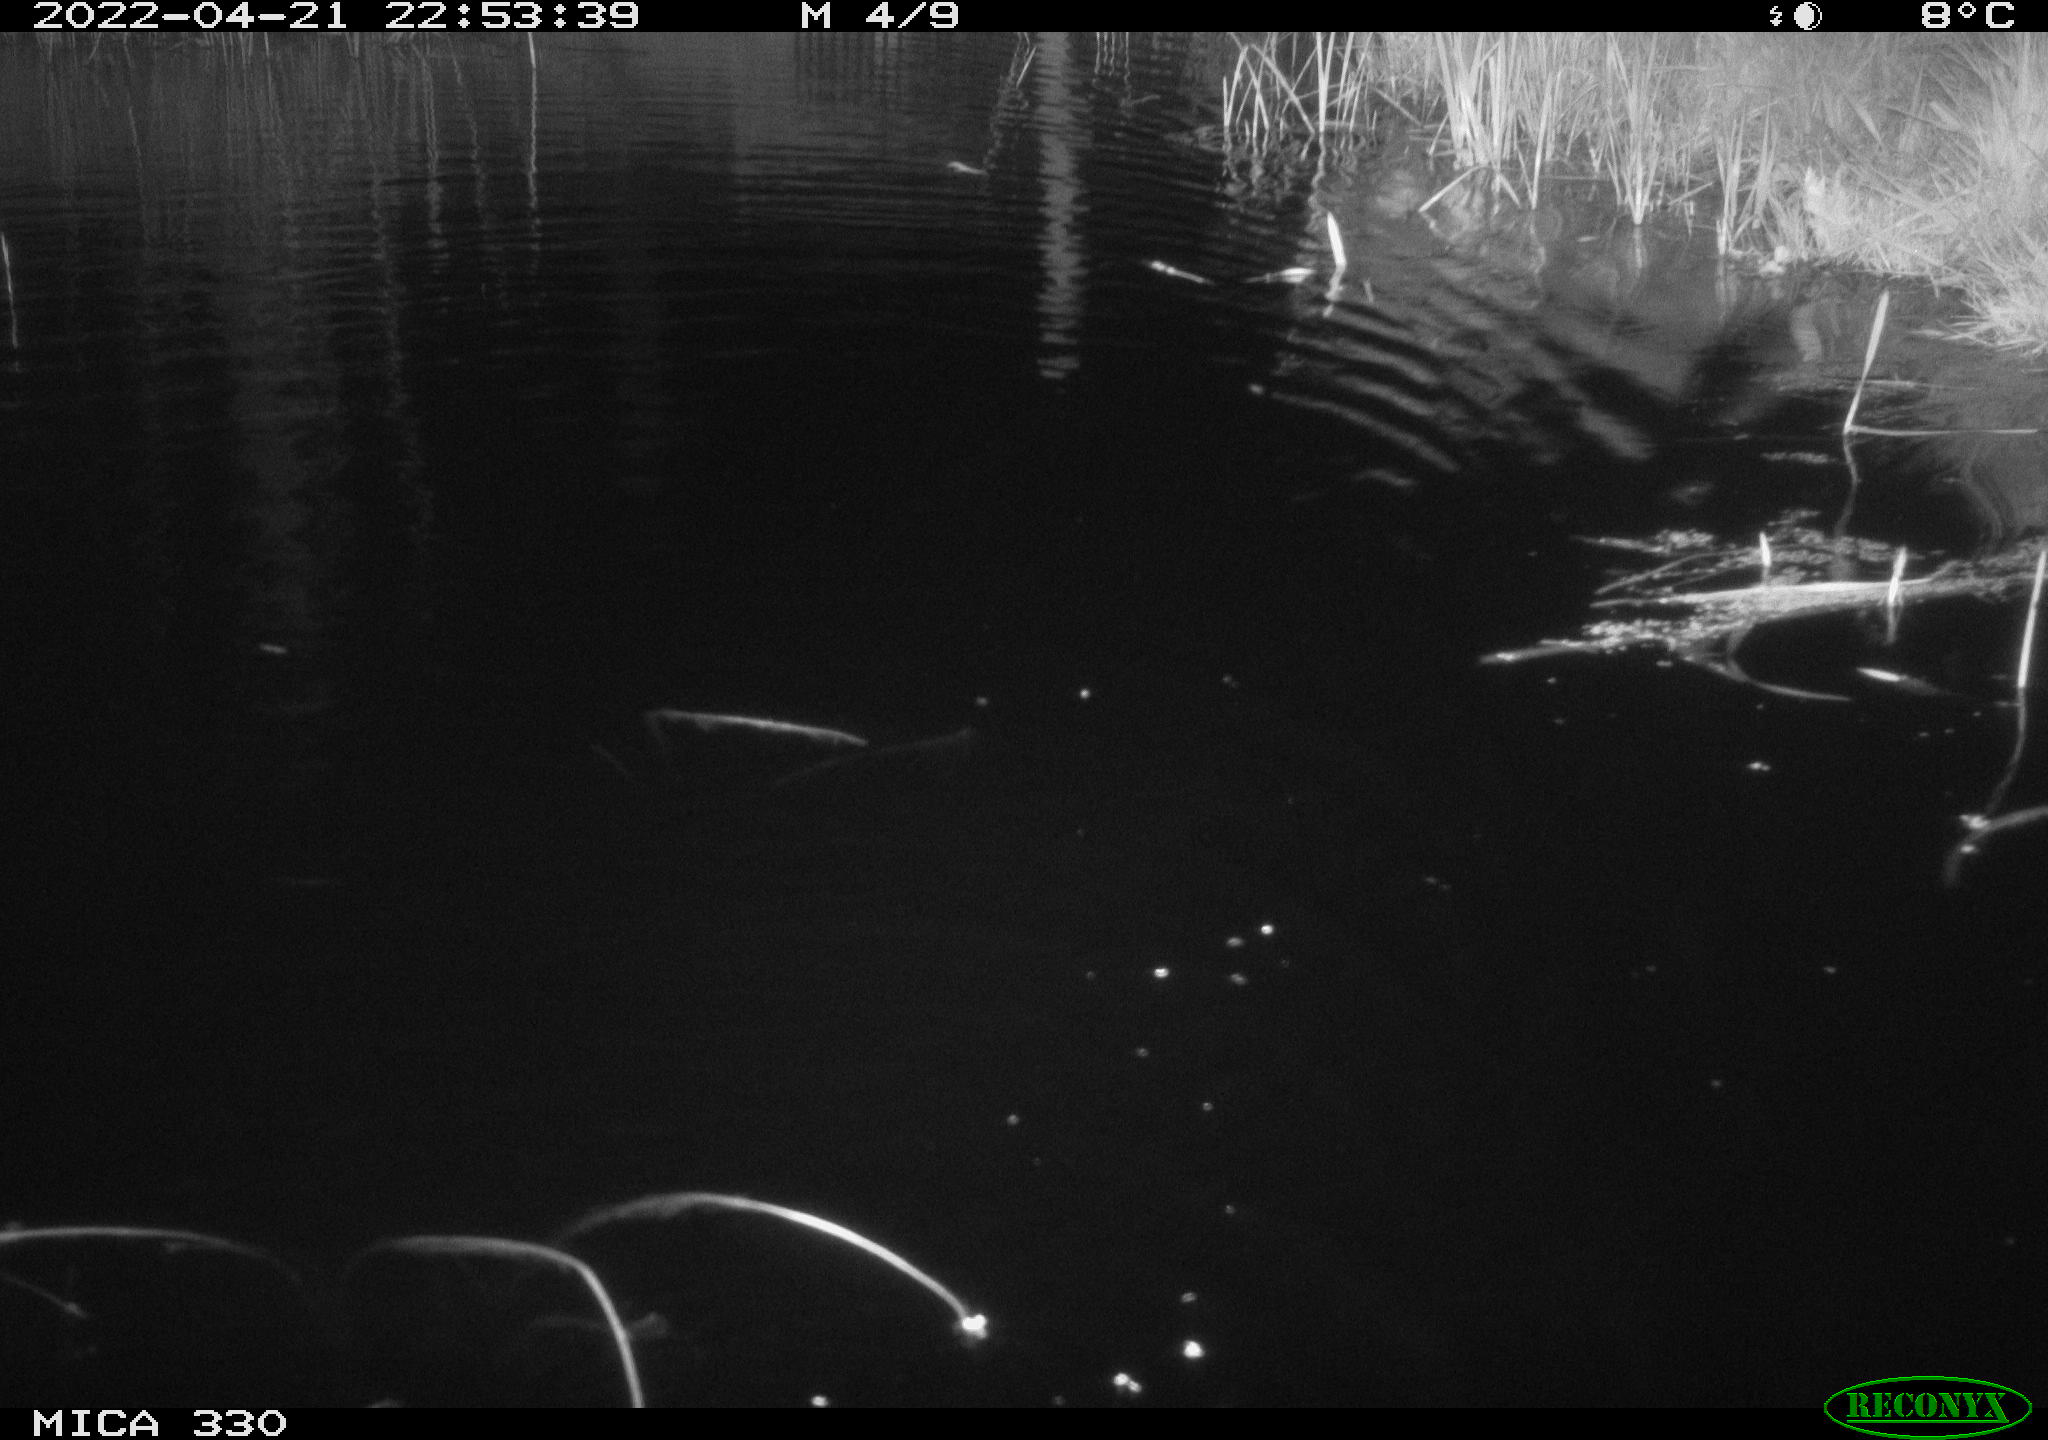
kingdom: Animalia
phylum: Chordata
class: Mammalia
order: Rodentia
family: Cricetidae
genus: Ondatra
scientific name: Ondatra zibethicus
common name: Muskrat
